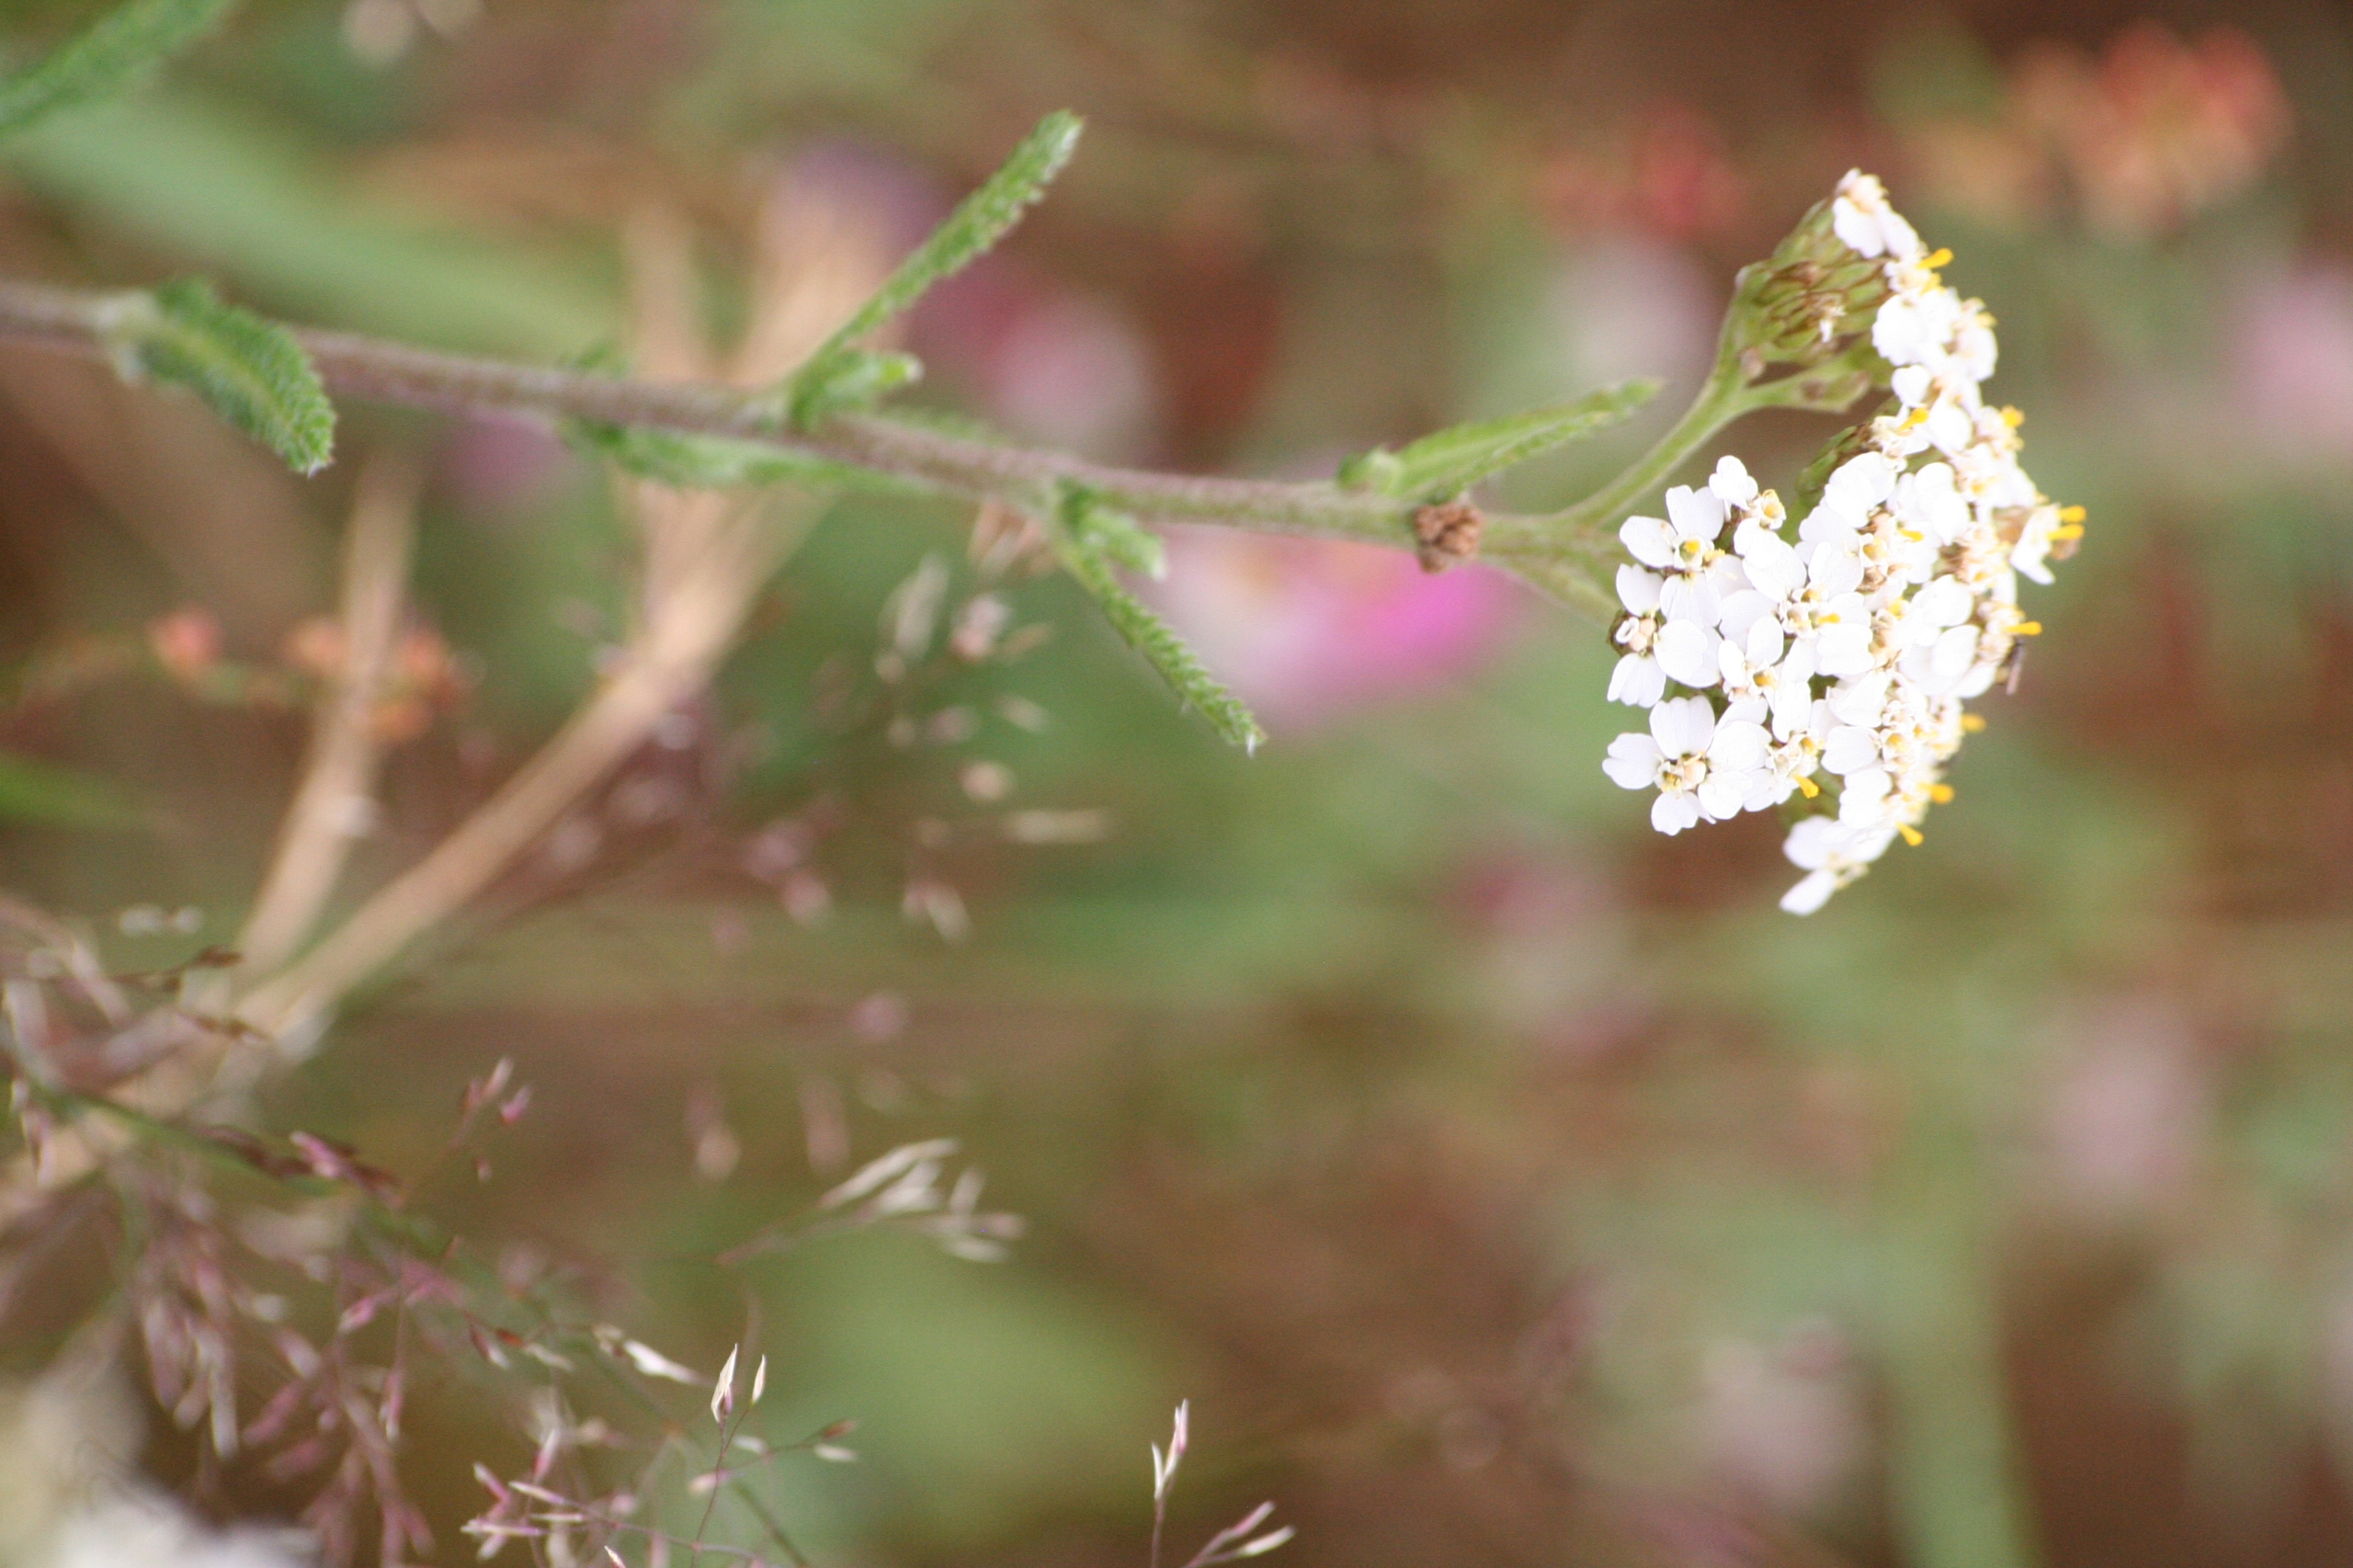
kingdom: Plantae
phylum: Tracheophyta
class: Magnoliopsida
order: Asterales
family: Asteraceae
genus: Achillea
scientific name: Achillea millefolium
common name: Almindelig røllike
